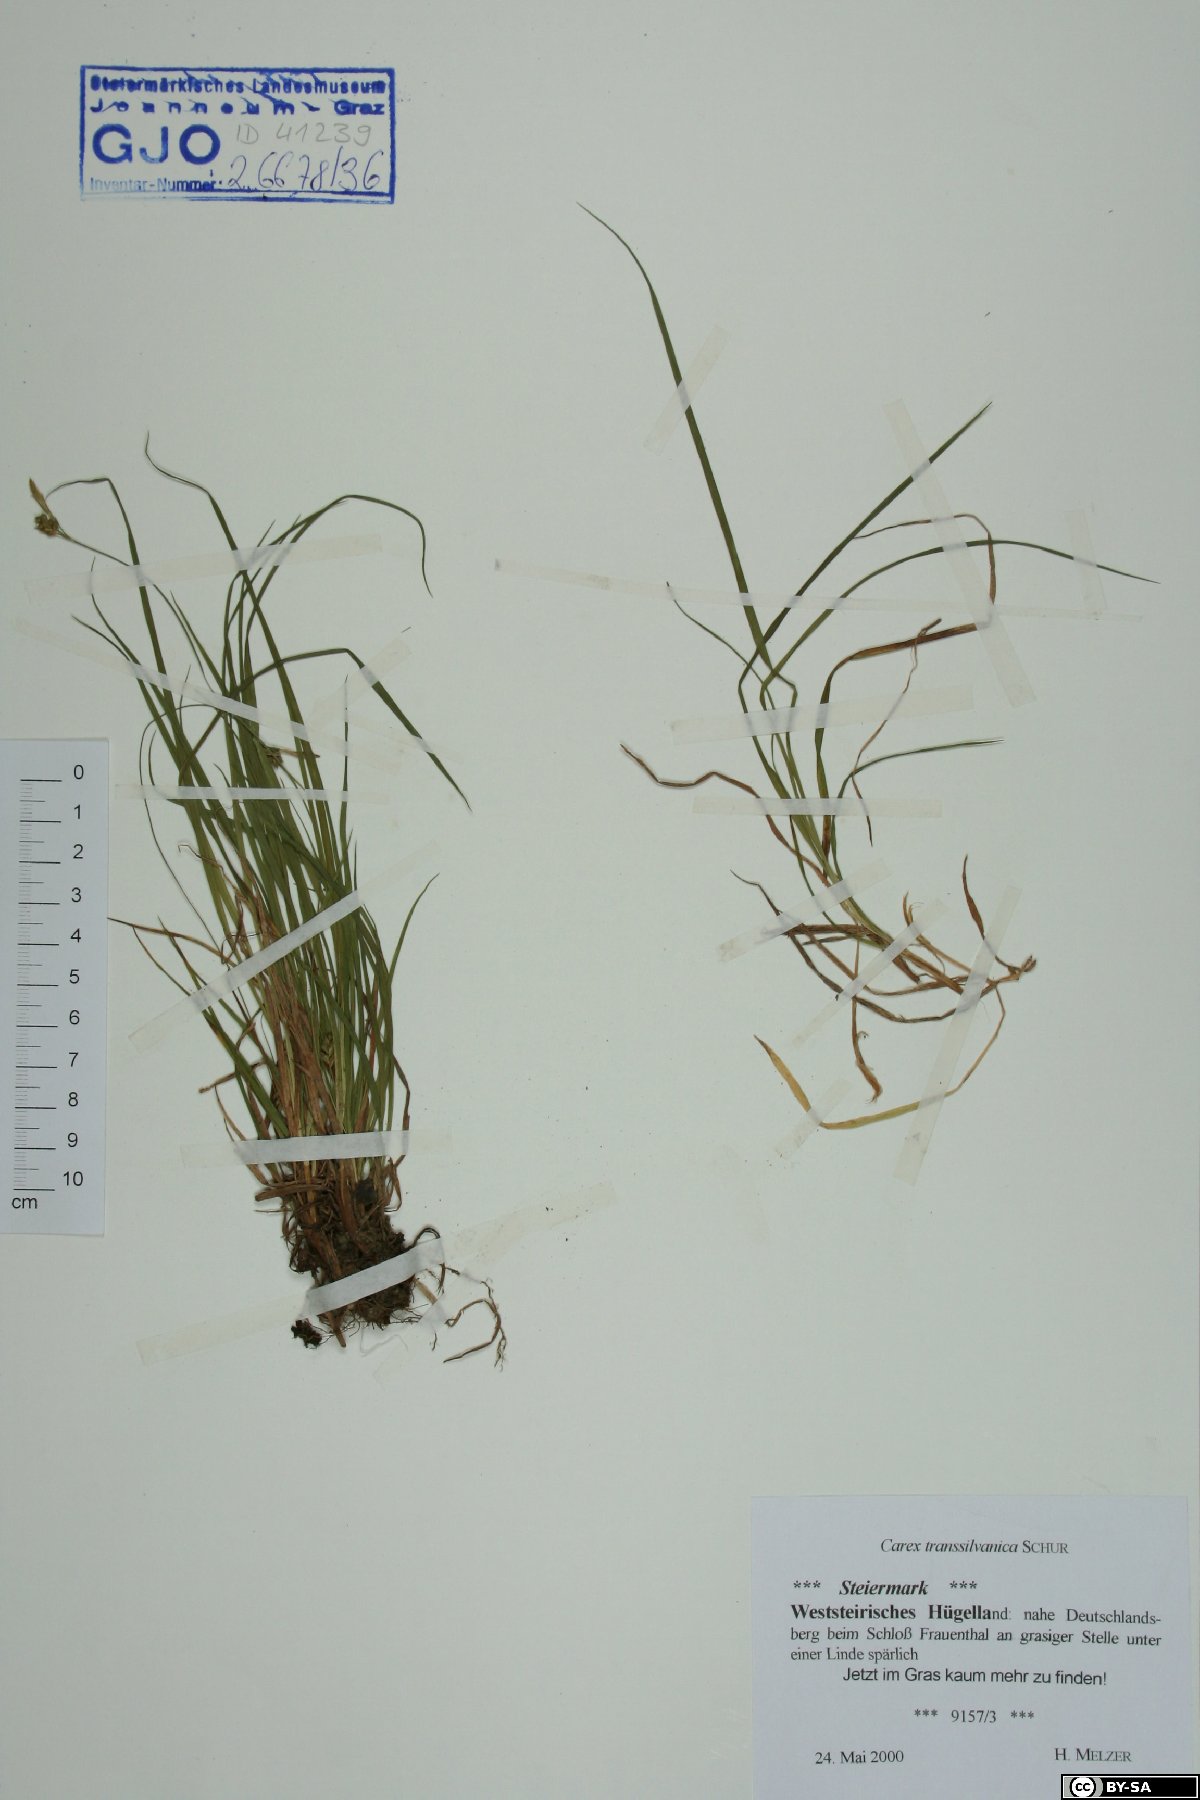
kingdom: Plantae
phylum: Tracheophyta
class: Liliopsida
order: Poales
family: Cyperaceae
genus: Carex
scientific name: Carex depressa
